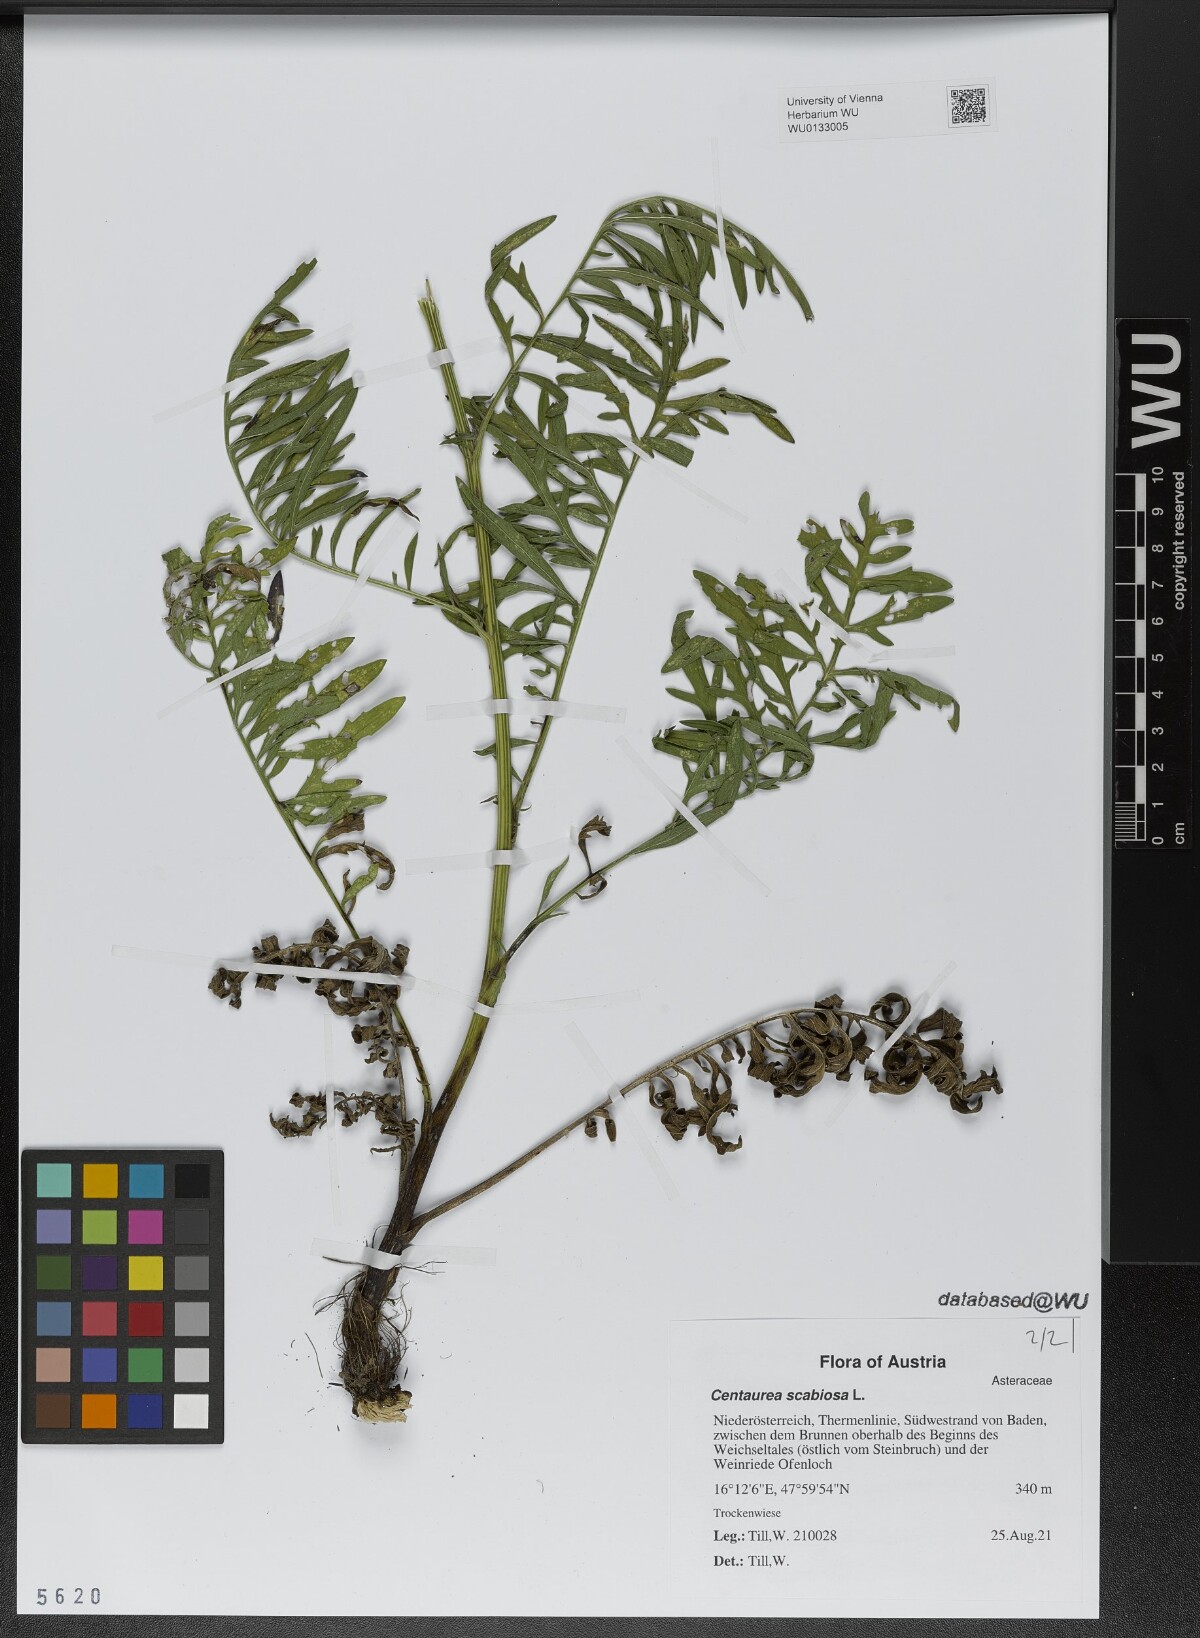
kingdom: Plantae
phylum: Tracheophyta
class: Magnoliopsida
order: Asterales
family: Asteraceae
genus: Centaurea
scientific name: Centaurea scabiosa
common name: Greater knapweed
